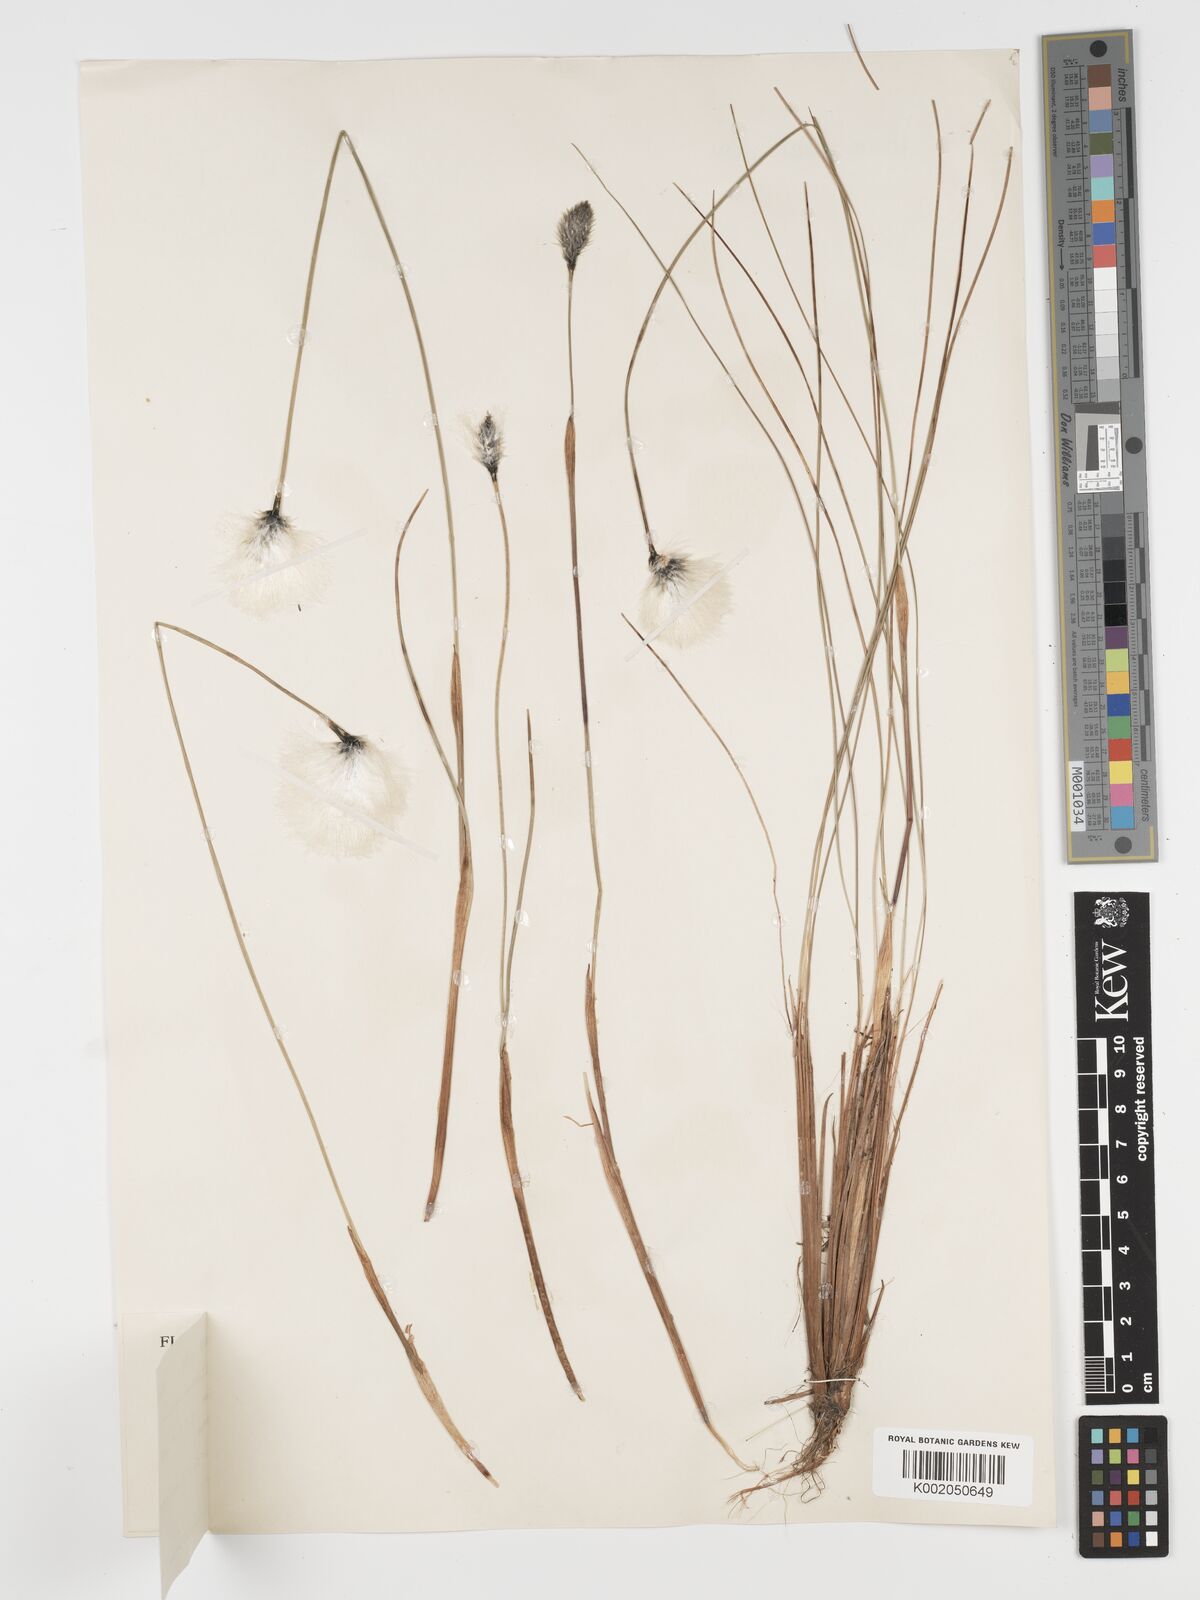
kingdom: Plantae
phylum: Tracheophyta
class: Liliopsida
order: Poales
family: Cyperaceae
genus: Eriophorum
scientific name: Eriophorum vaginatum
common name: Hare's-tail cottongrass
